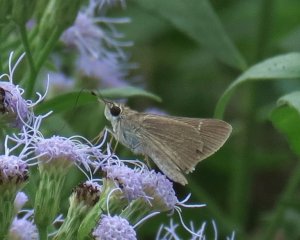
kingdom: Animalia
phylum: Arthropoda
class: Insecta
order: Lepidoptera
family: Hesperiidae
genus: Lerodea
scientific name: Lerodea eufala
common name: Eufala Skipper
